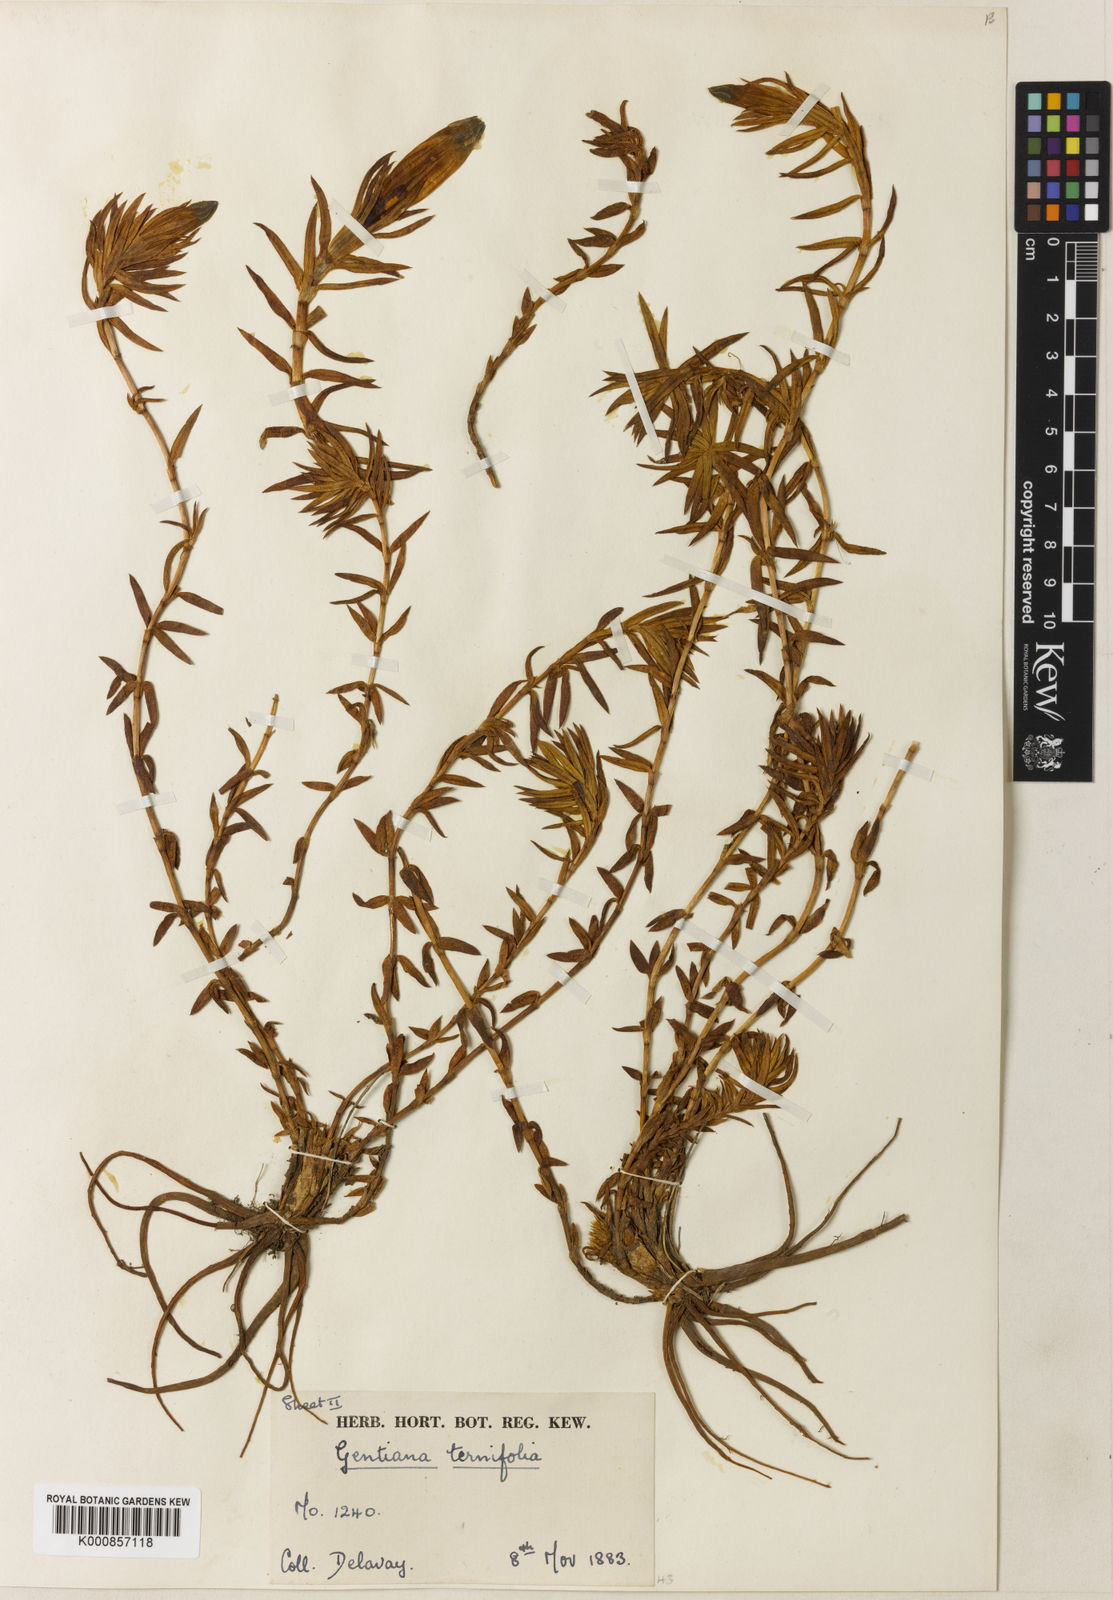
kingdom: Plantae
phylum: Tracheophyta
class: Magnoliopsida
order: Gentianales
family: Gentianaceae
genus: Gentiana
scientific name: Gentiana ternifolia
